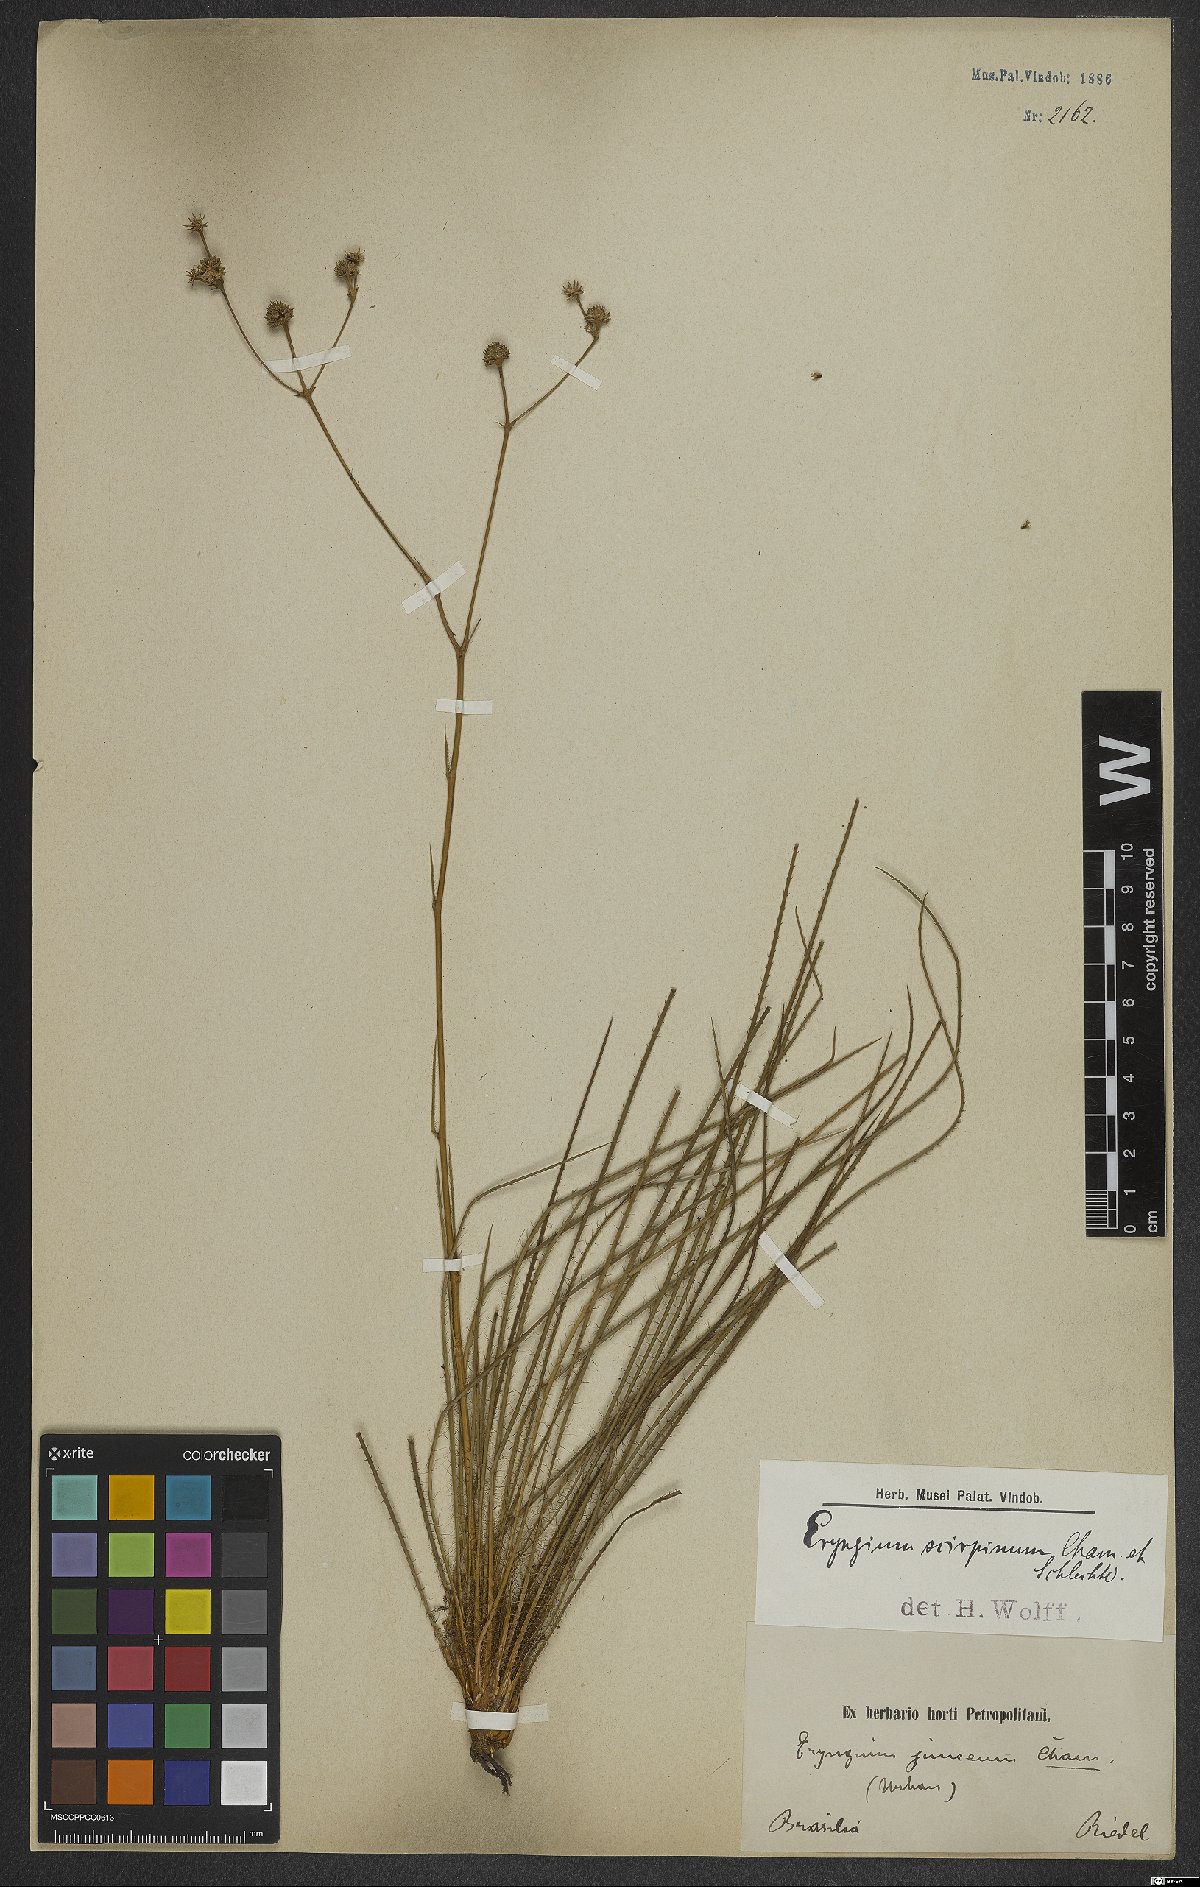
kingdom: Plantae
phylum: Tracheophyta
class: Magnoliopsida
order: Apiales
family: Apiaceae
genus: Eryngium
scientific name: Eryngium scirpinum
